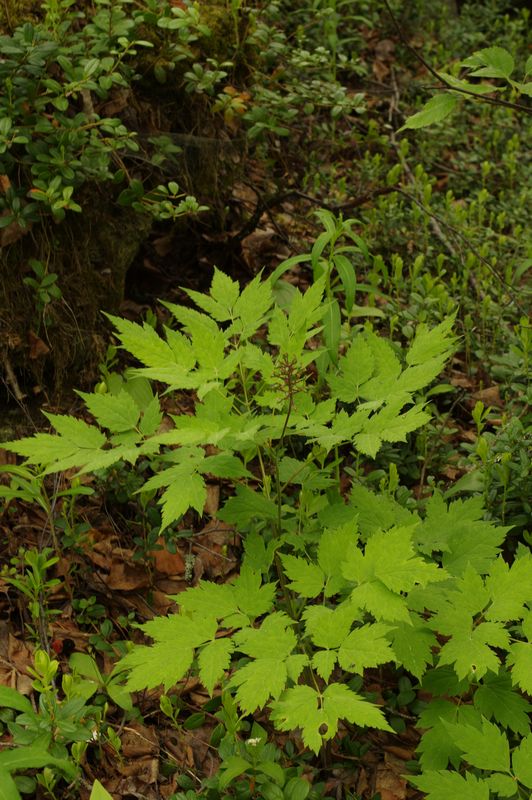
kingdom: Plantae
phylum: Tracheophyta
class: Magnoliopsida
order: Ranunculales
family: Ranunculaceae
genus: Actaea
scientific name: Actaea erythrocarpa
